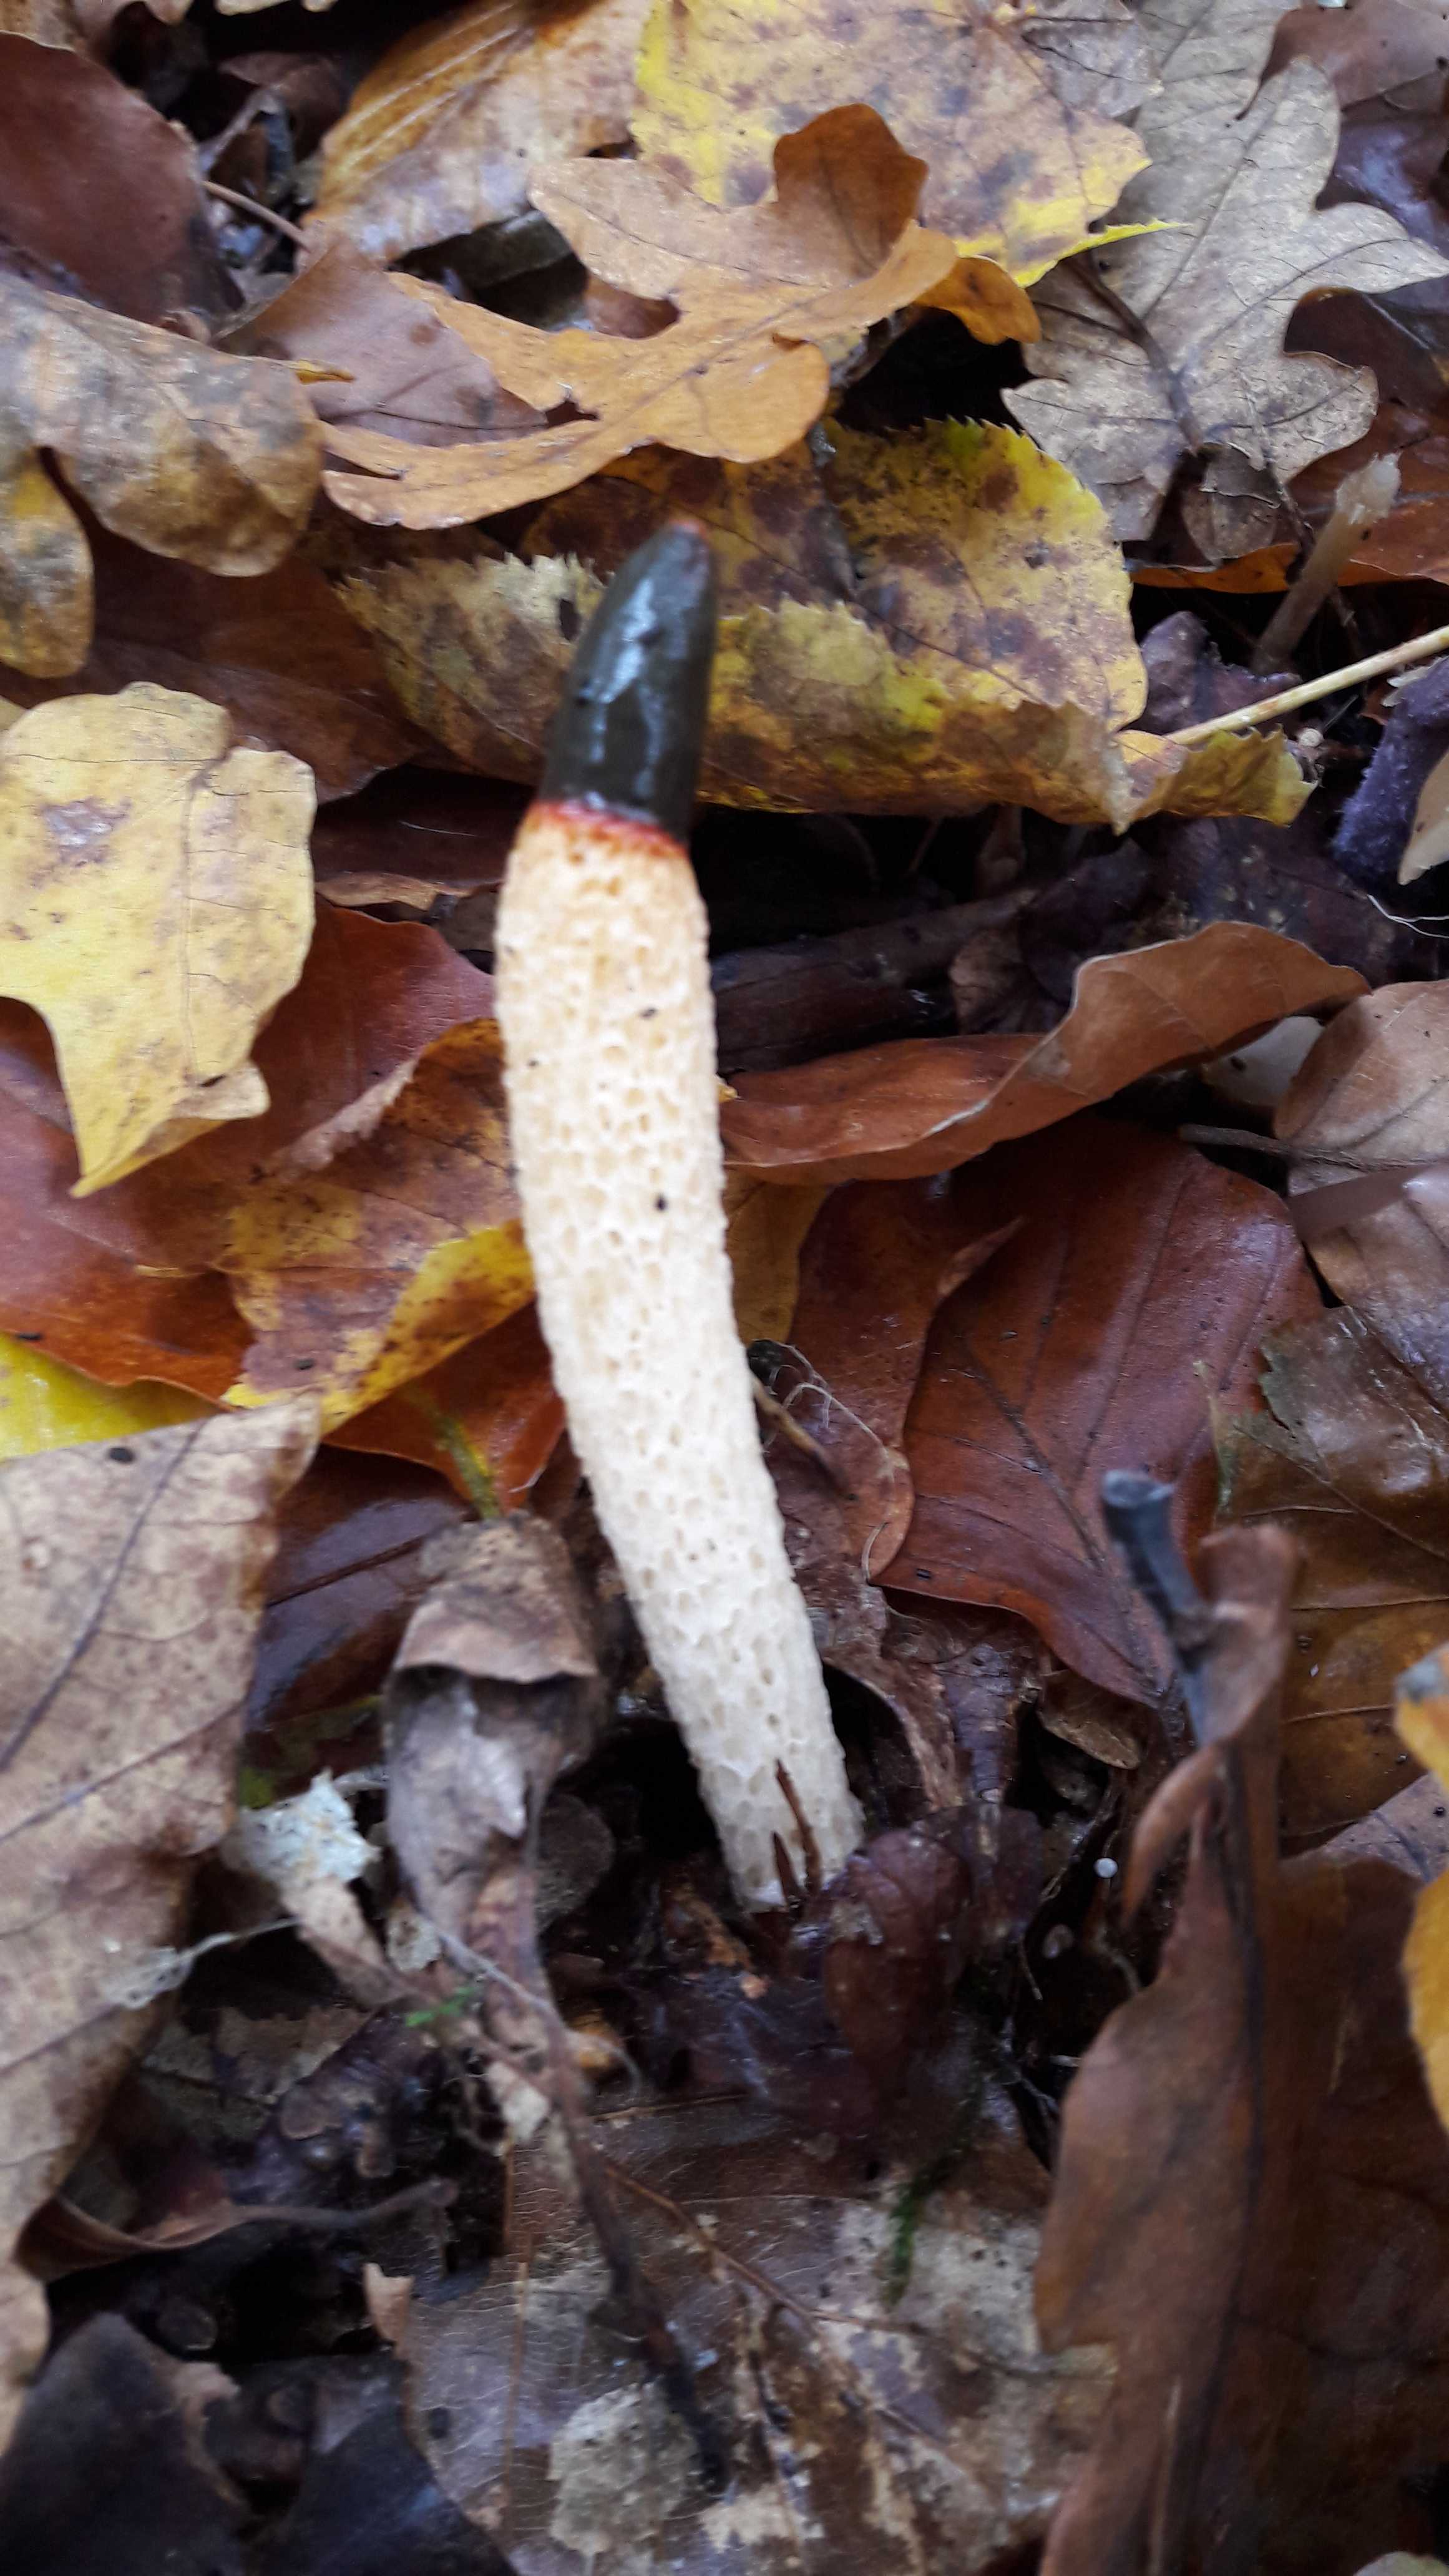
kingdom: Fungi
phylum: Basidiomycota
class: Agaricomycetes
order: Phallales
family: Phallaceae
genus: Mutinus
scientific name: Mutinus caninus
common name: hunde-stinksvamp
